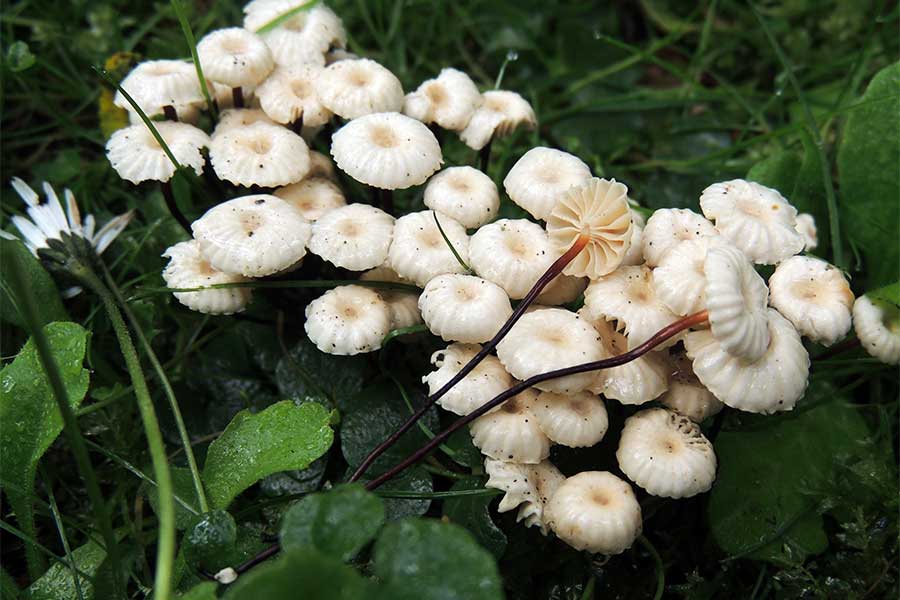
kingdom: Fungi
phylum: Basidiomycota
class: Agaricomycetes
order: Agaricales
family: Marasmiaceae
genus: Marasmius
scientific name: Marasmius rotula
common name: hjul-bruskhat
